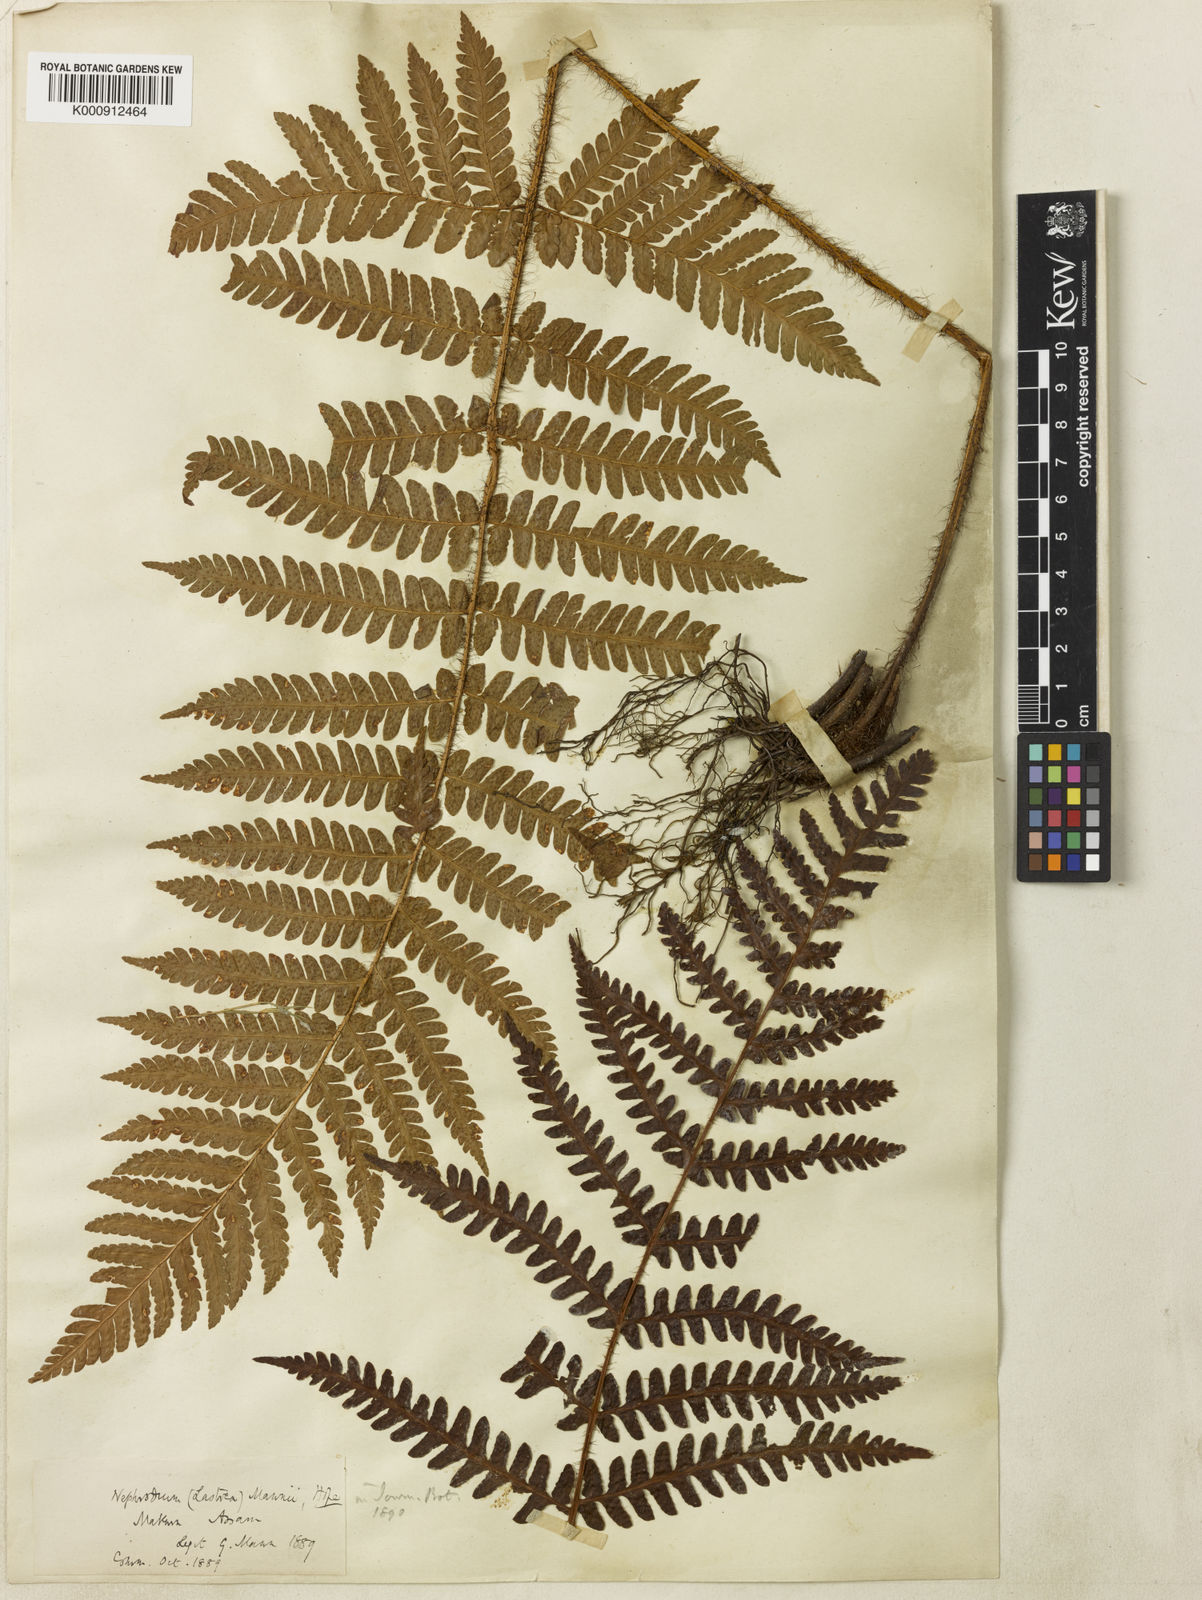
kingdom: Plantae
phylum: Tracheophyta
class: Polypodiopsida
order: Polypodiales
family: Dryopteridaceae
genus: Ctenitis
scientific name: Ctenitis mannii
